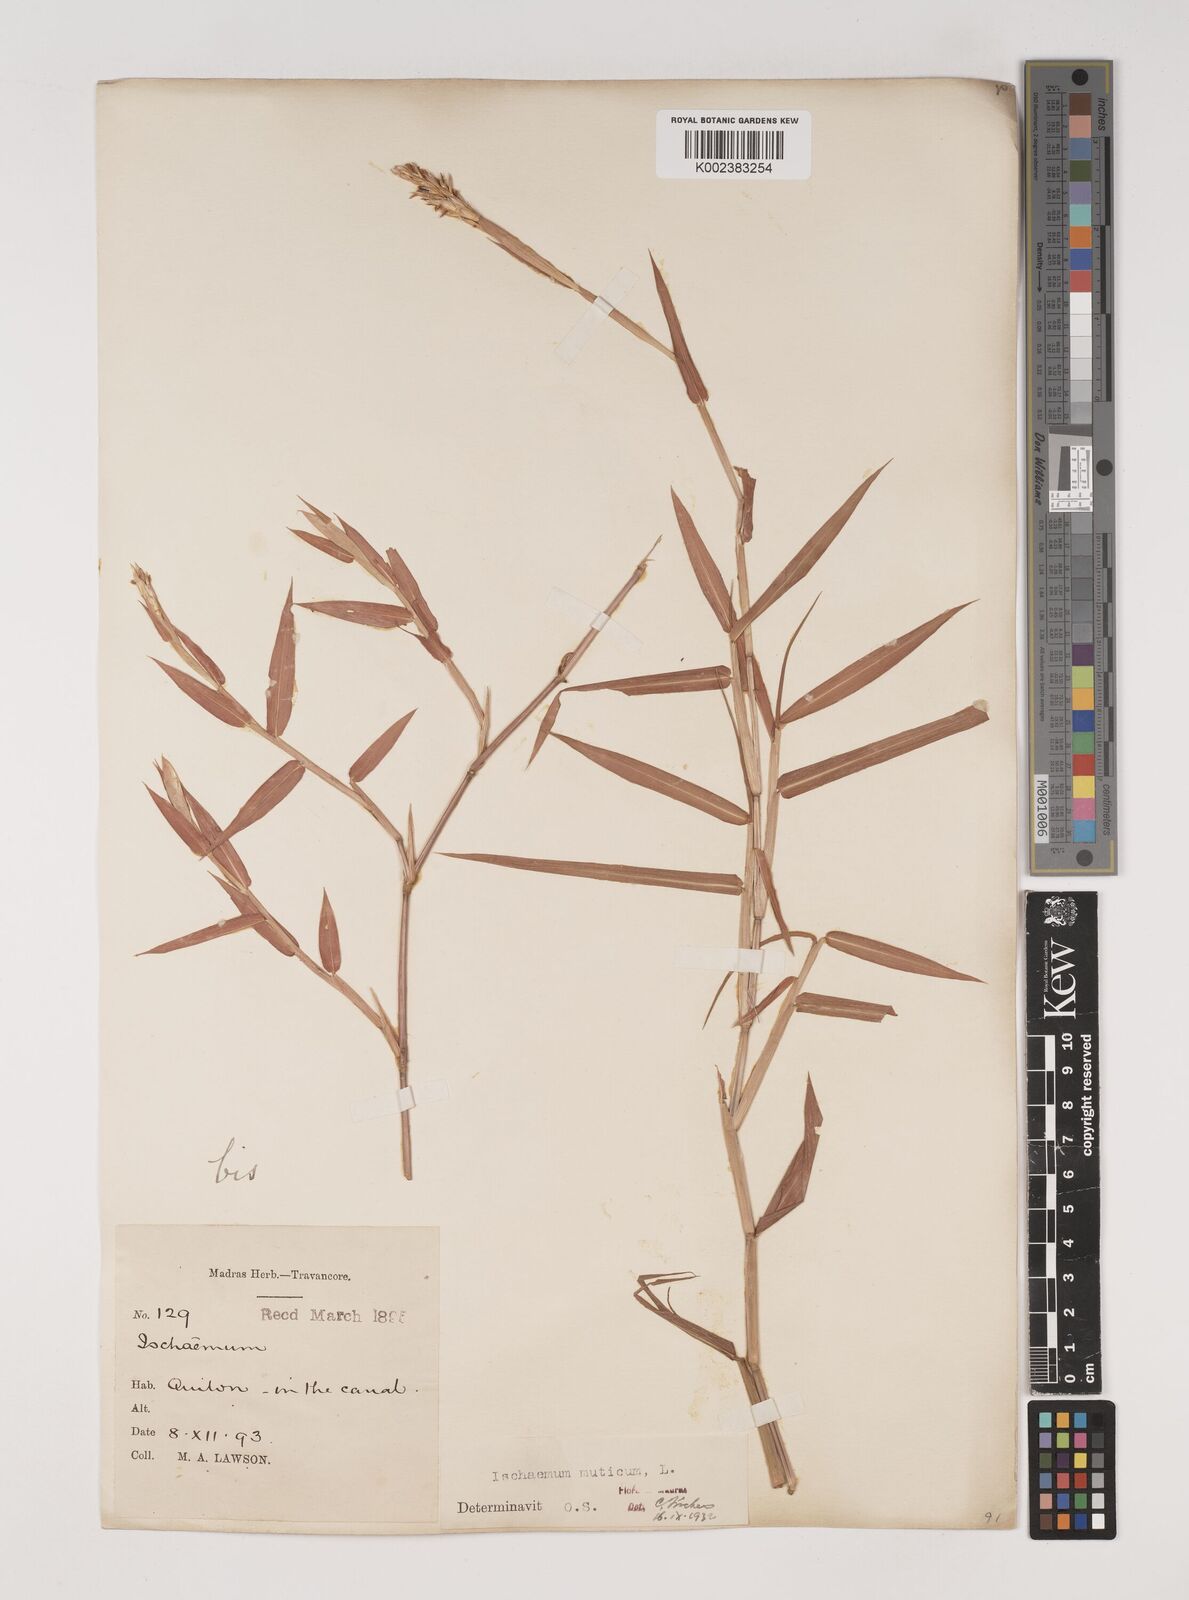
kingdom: Plantae
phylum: Tracheophyta
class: Liliopsida
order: Poales
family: Poaceae
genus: Ischaemum
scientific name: Ischaemum muticum
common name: Drought grass
